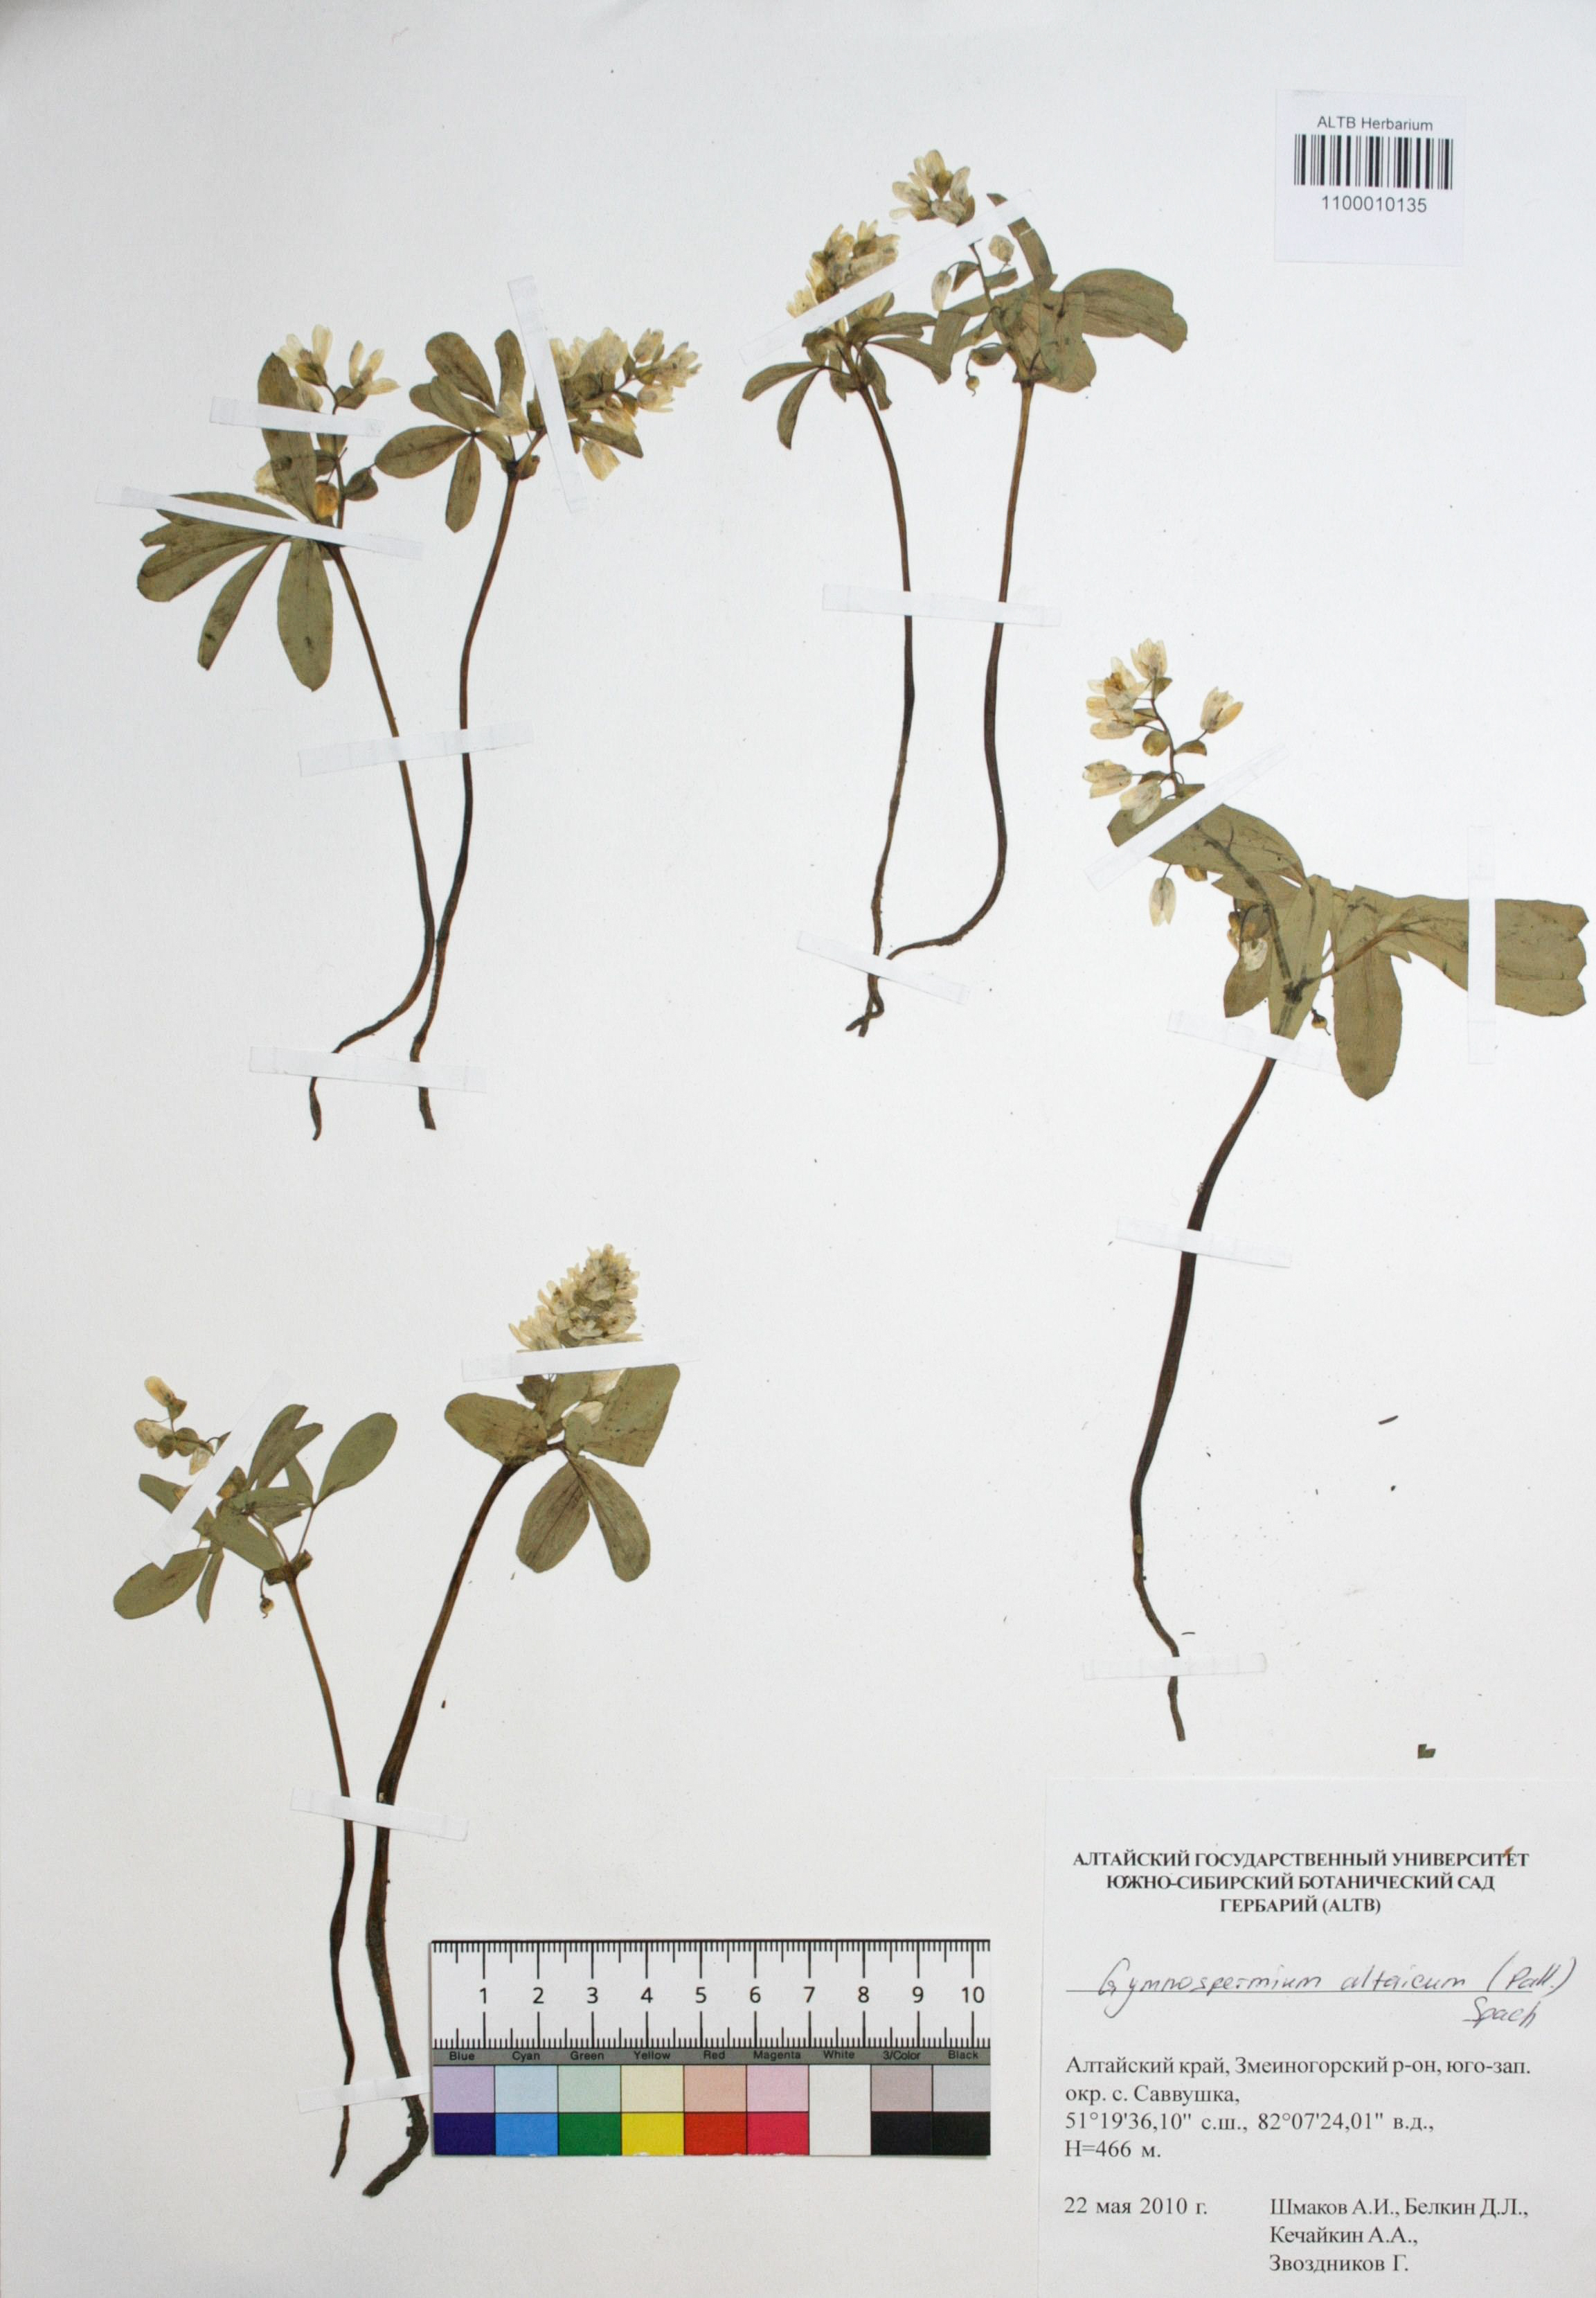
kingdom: Plantae
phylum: Tracheophyta
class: Magnoliopsida
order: Ranunculales
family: Berberidaceae
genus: Gymnospermium
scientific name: Gymnospermium altaicum
